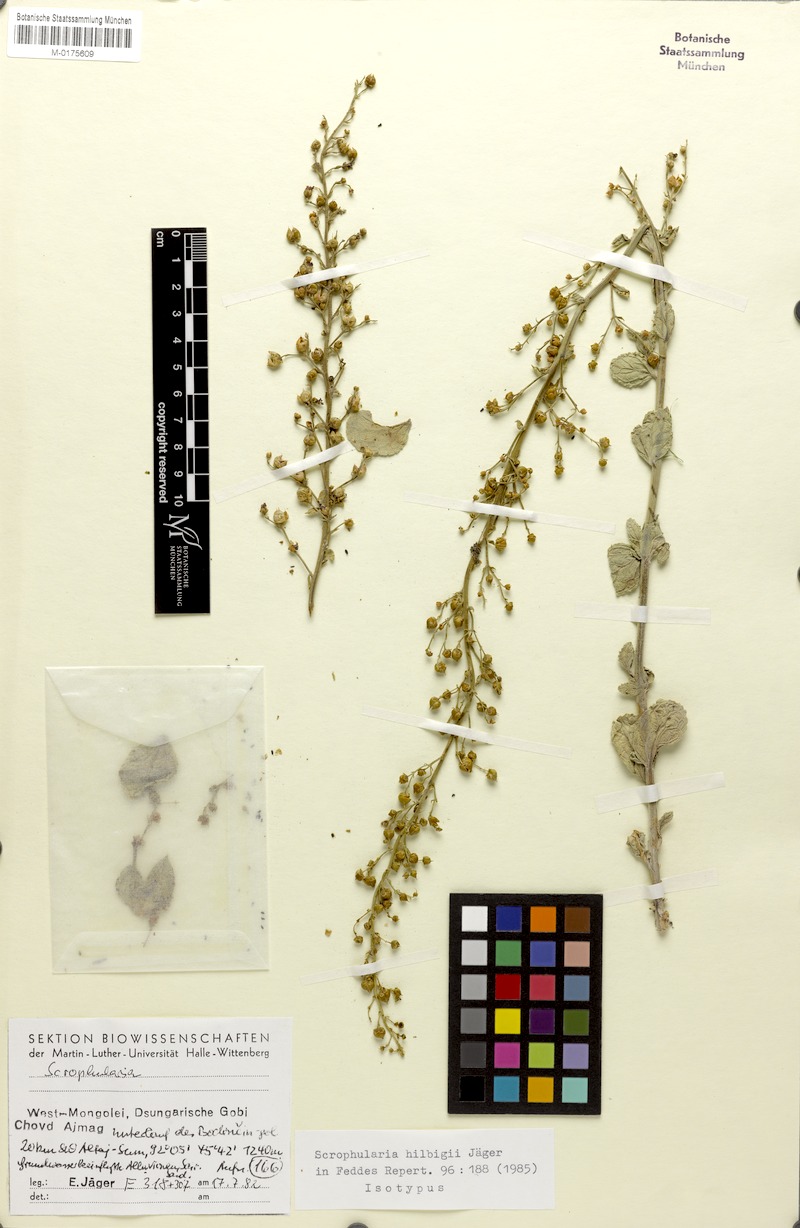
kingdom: Plantae
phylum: Tracheophyta
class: Magnoliopsida
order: Lamiales
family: Scrophulariaceae
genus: Scrophularia
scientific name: Scrophularia hilbigii
